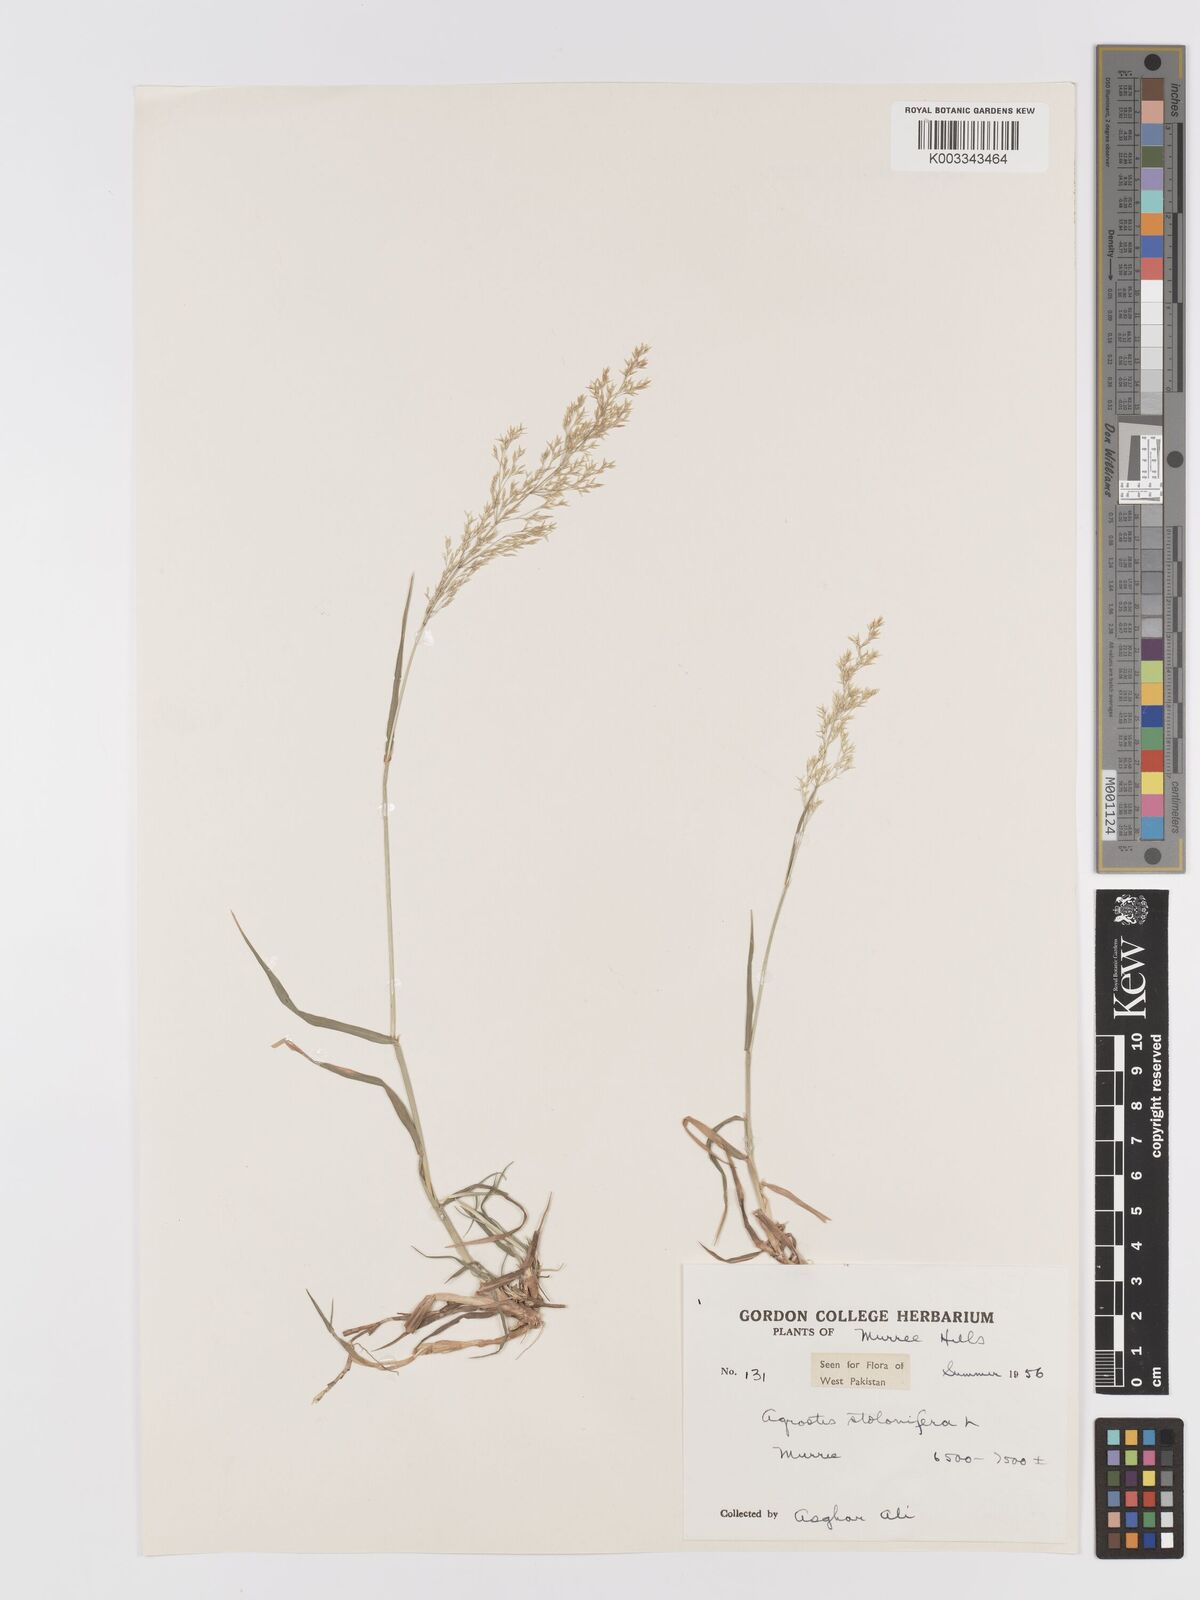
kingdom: Plantae
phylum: Tracheophyta
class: Liliopsida
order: Poales
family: Poaceae
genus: Agrostis
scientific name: Agrostis stolonifera
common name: Creeping bentgrass
